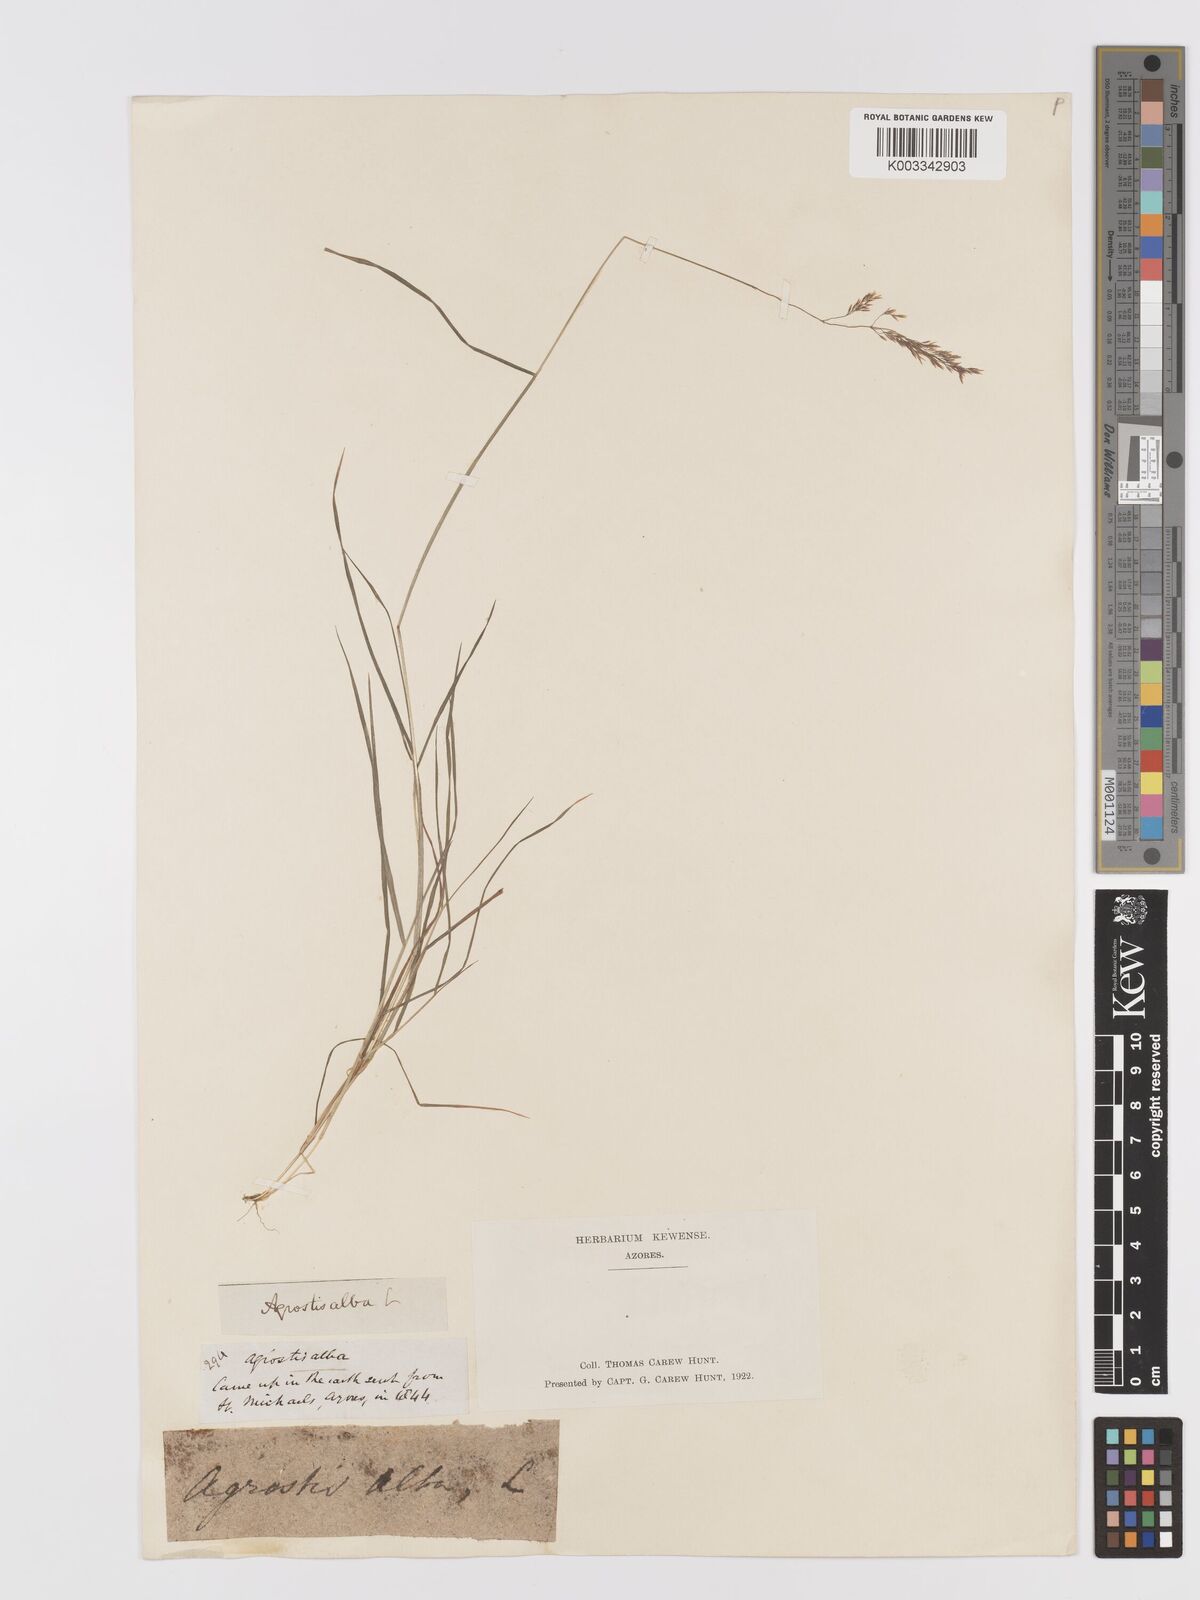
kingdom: Plantae
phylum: Tracheophyta
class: Liliopsida
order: Poales
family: Poaceae
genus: Agrostis
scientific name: Agrostis gigantea
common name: Black bent
